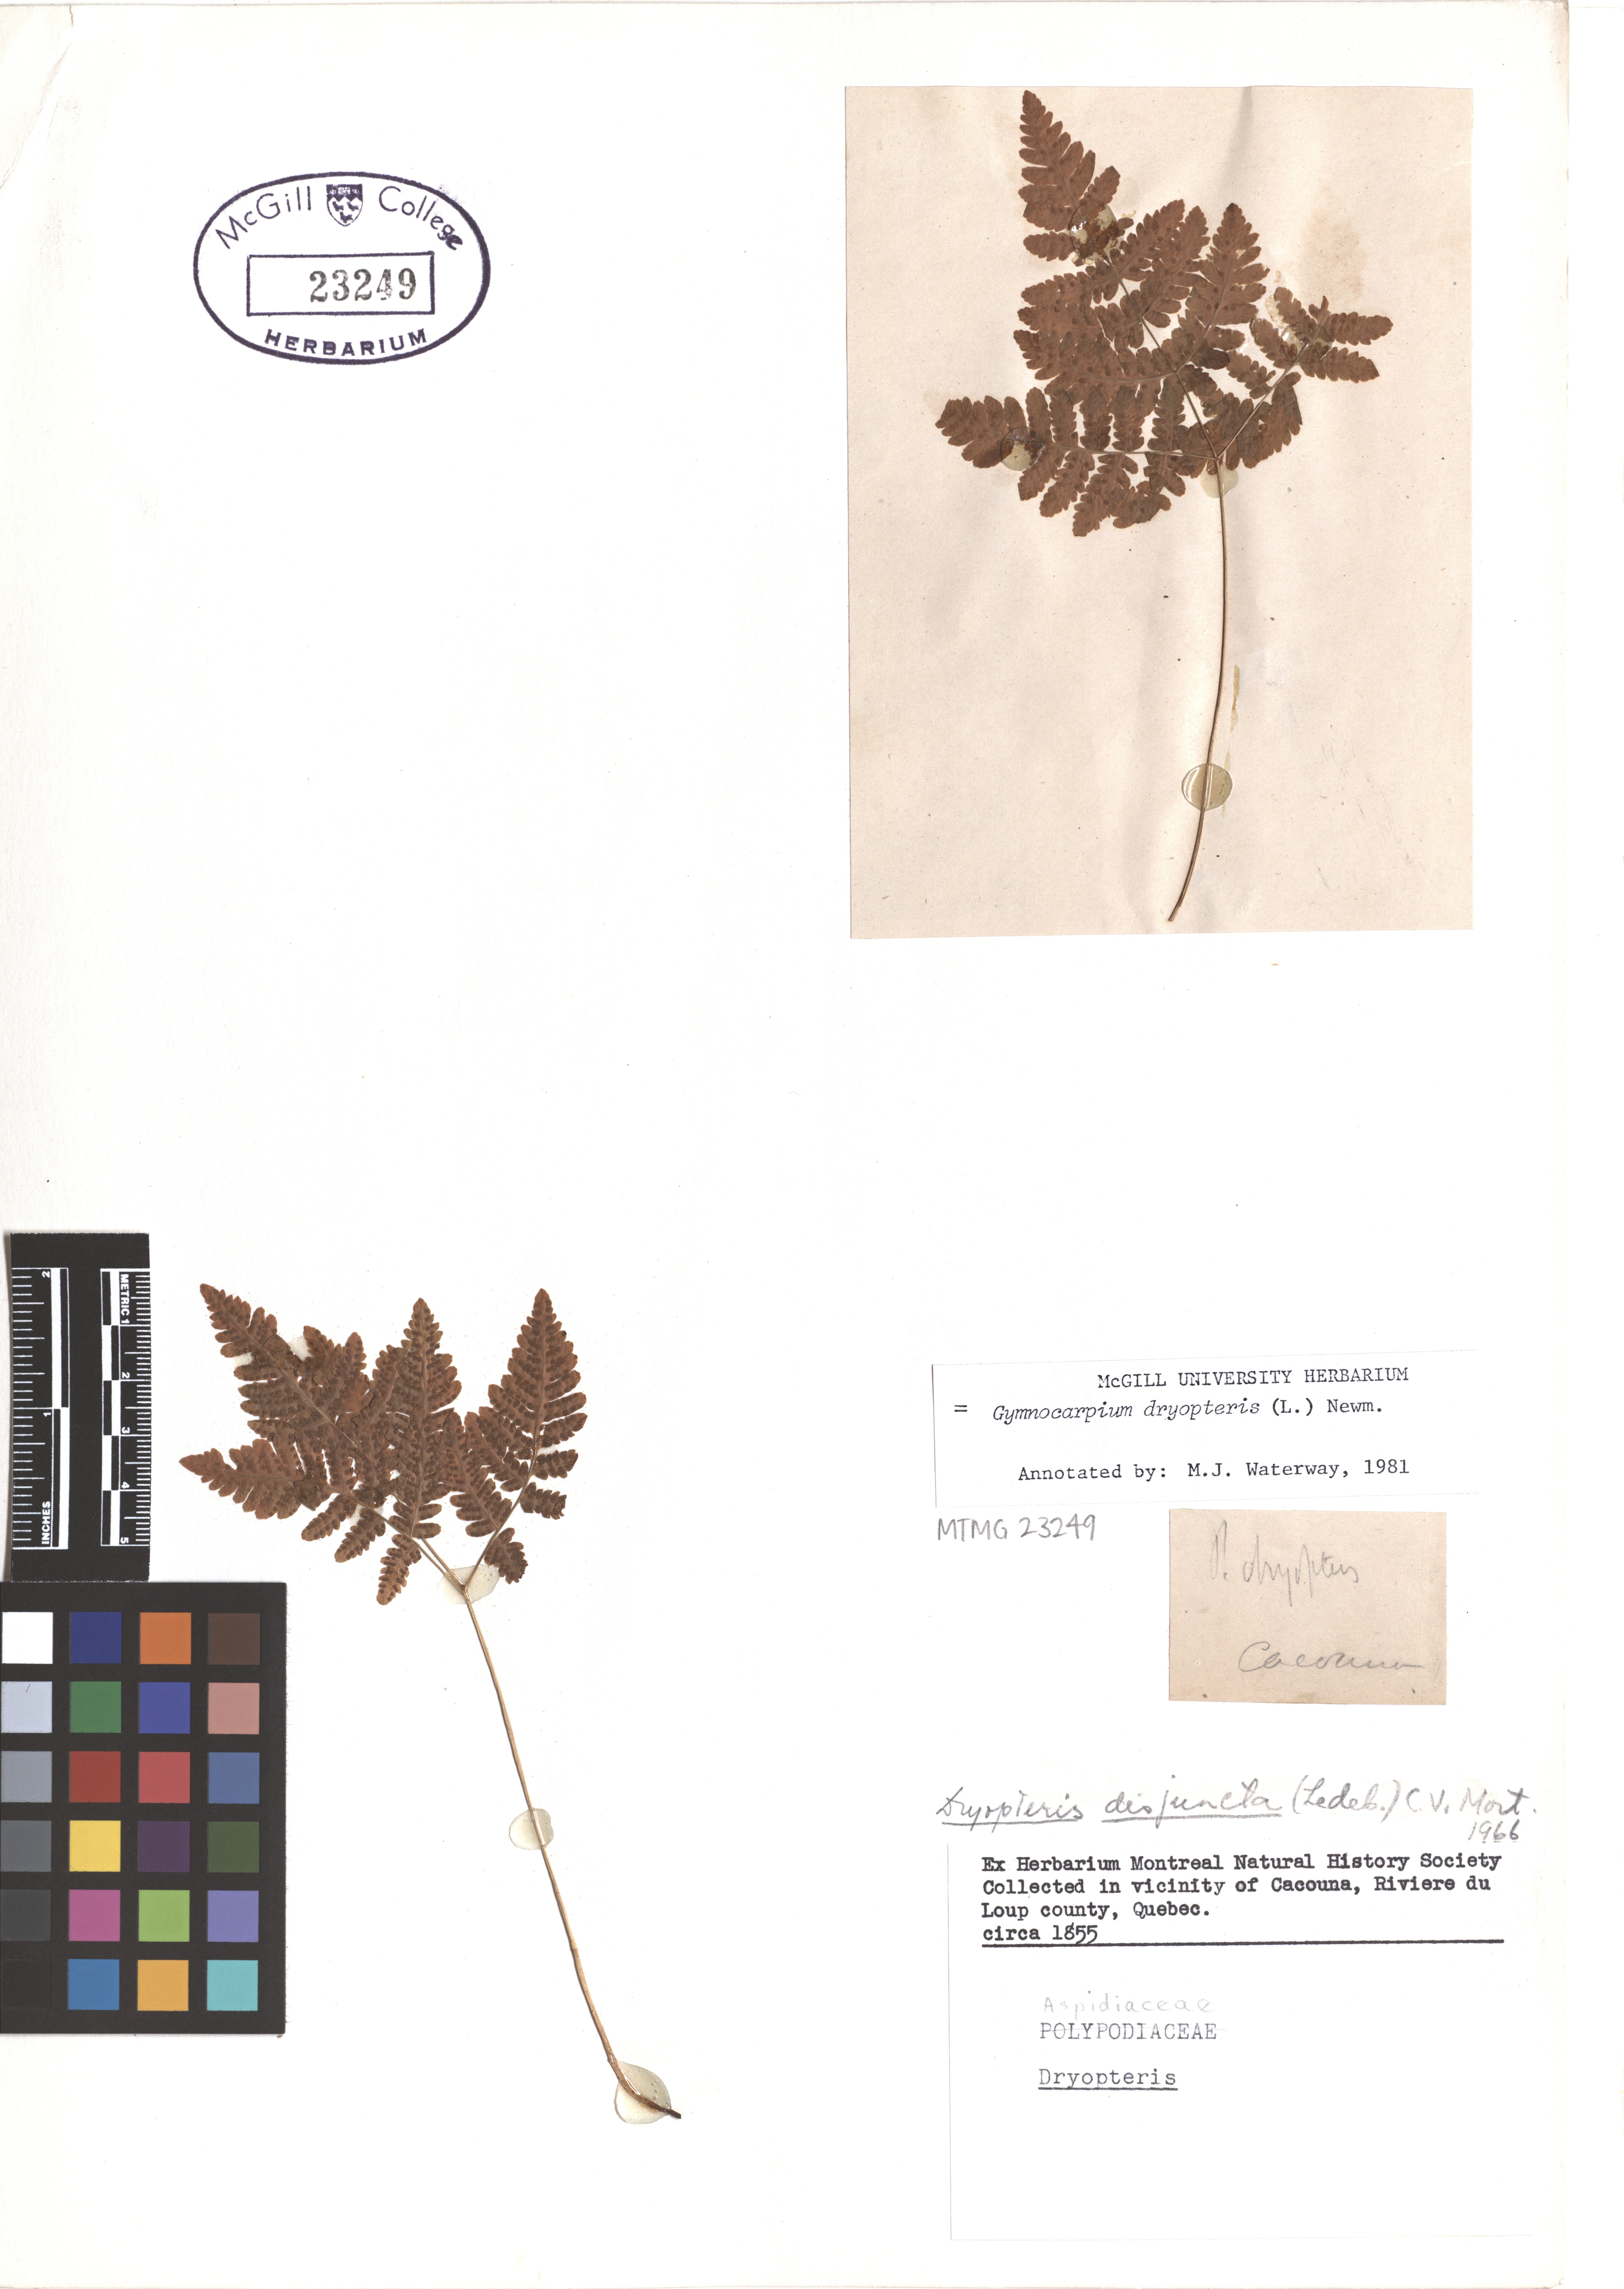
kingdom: Plantae
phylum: Tracheophyta
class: Polypodiopsida
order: Polypodiales
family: Cystopteridaceae
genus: Gymnocarpium
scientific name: Gymnocarpium dryopteris
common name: Oak fern
